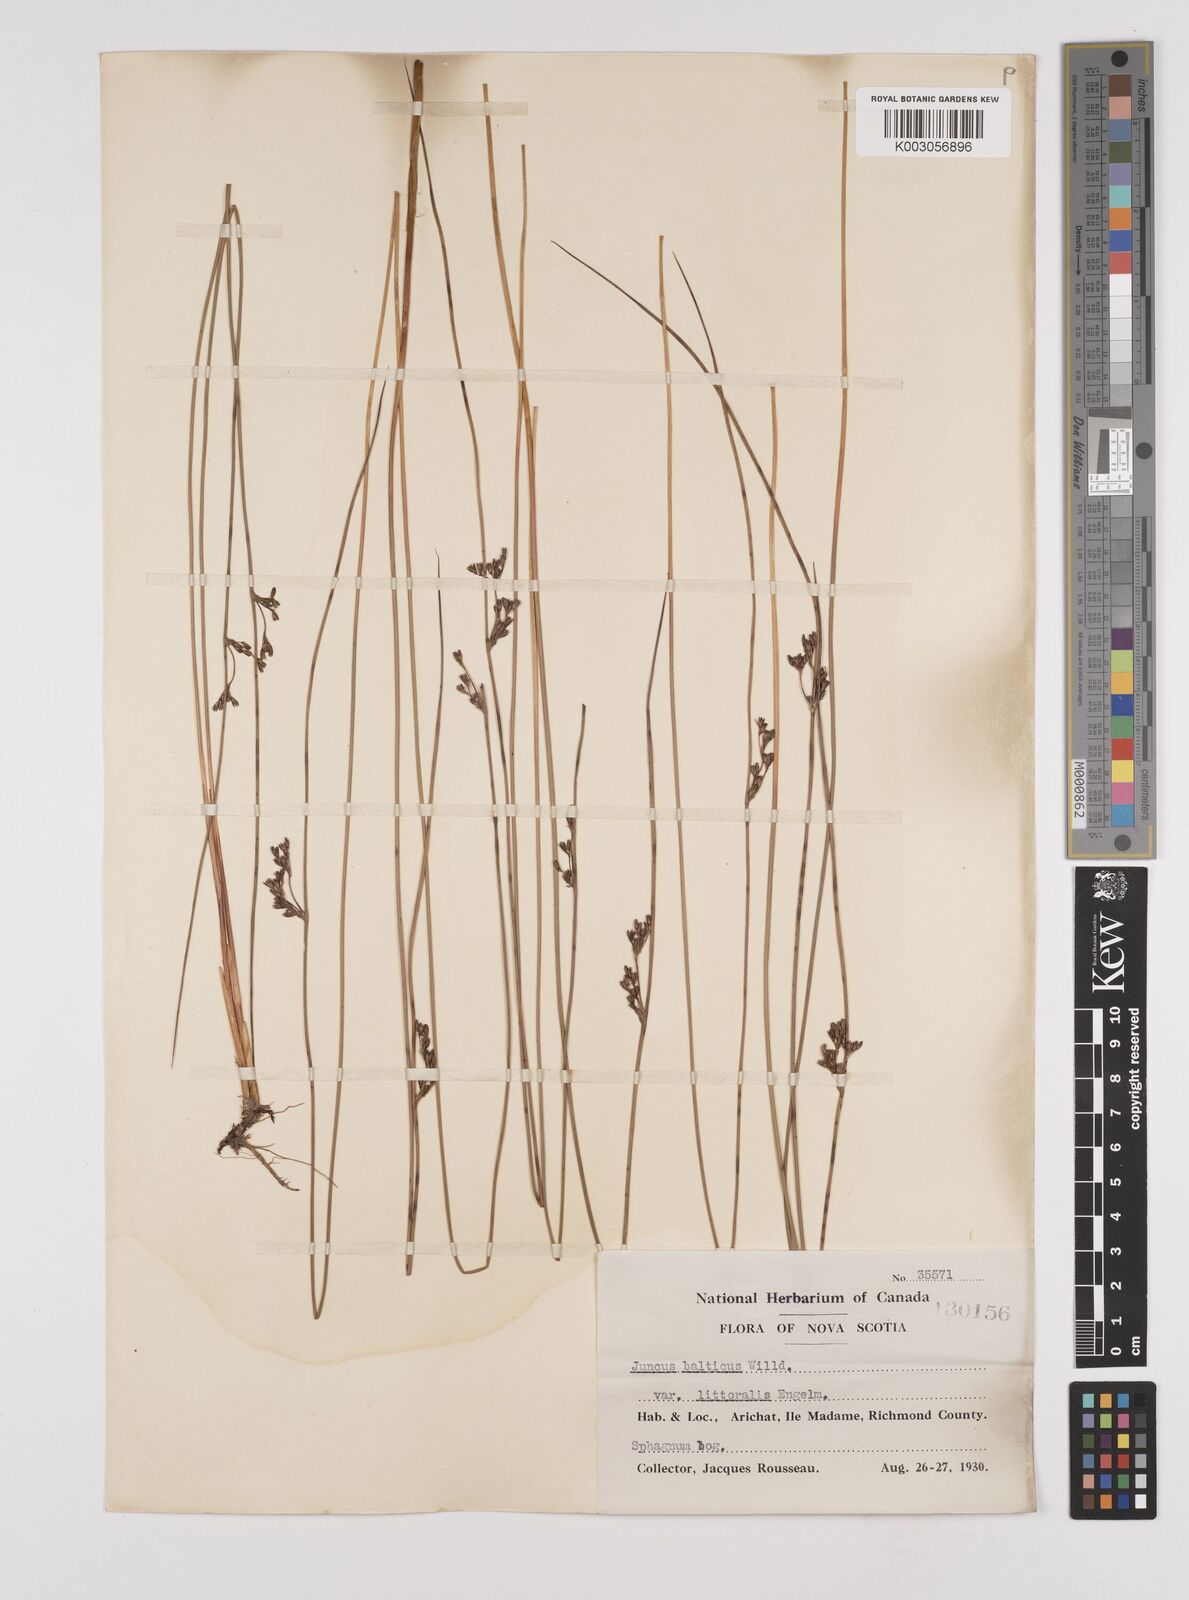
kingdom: Plantae
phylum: Tracheophyta
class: Liliopsida
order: Poales
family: Juncaceae
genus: Juncus
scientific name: Juncus balticus
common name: Baltic rush
